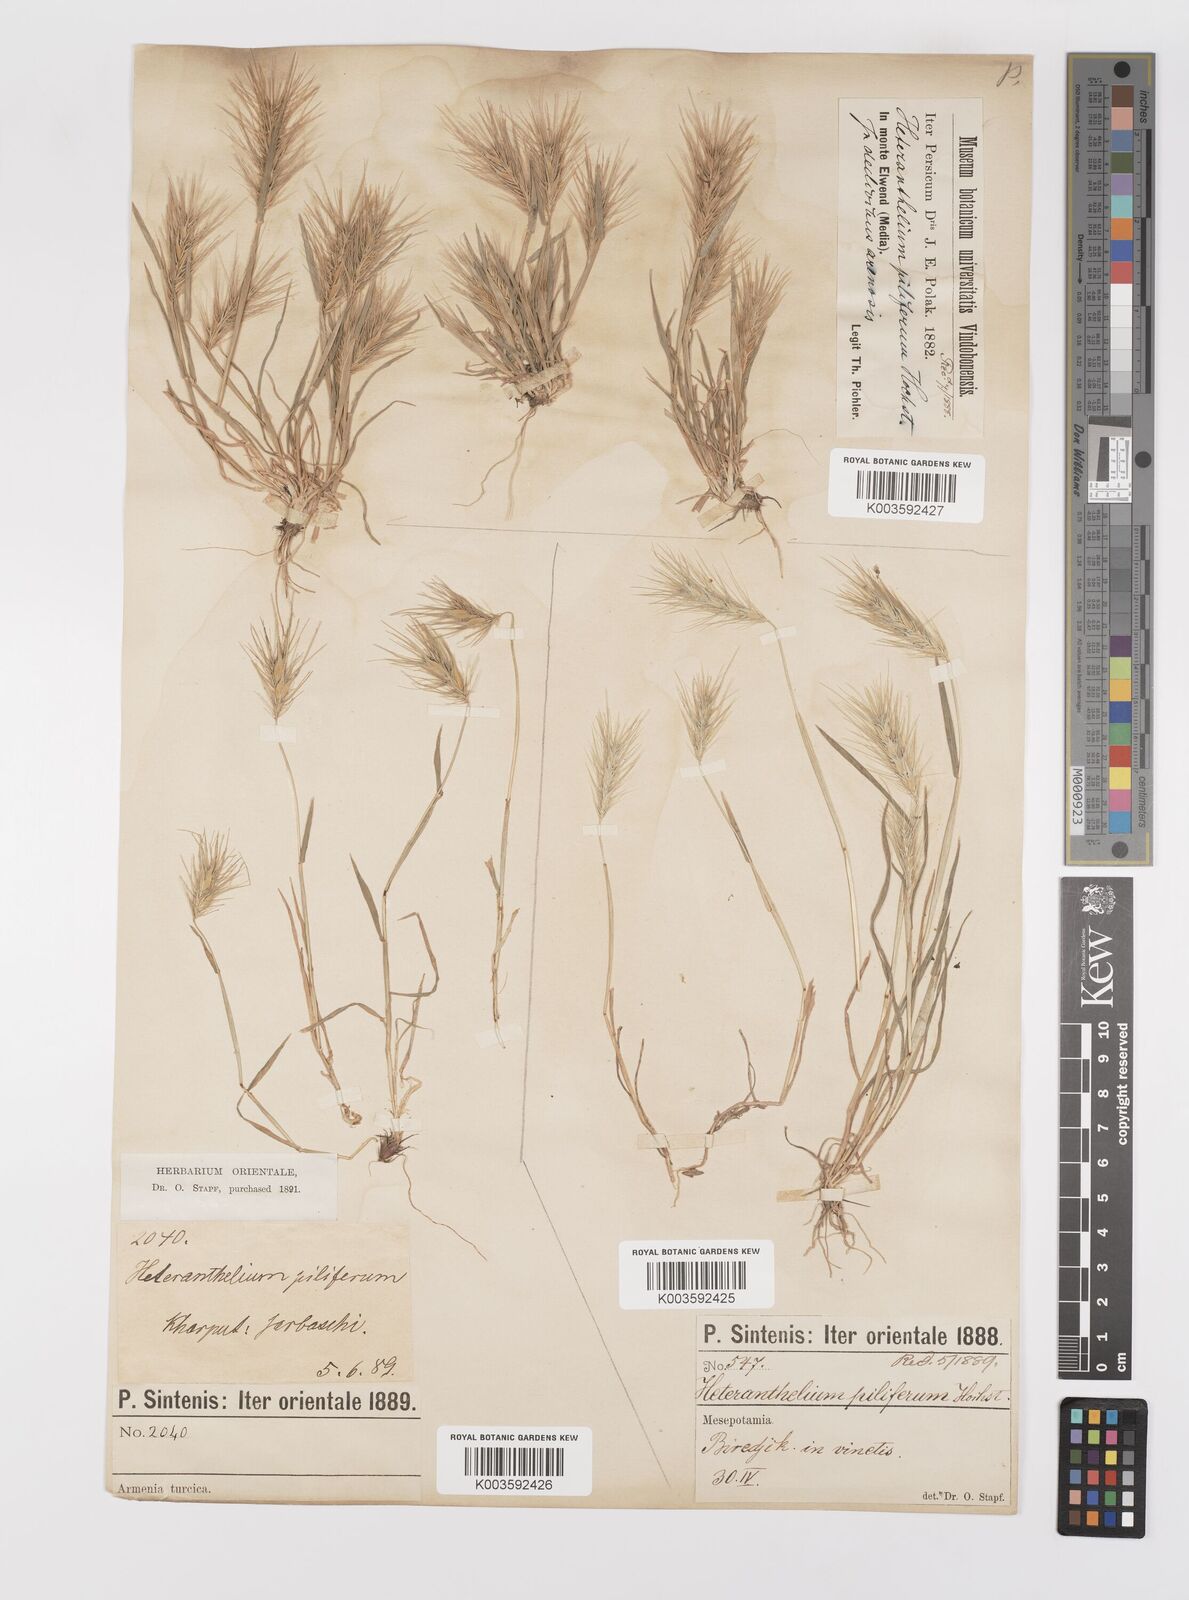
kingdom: Plantae
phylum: Tracheophyta
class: Liliopsida
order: Poales
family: Poaceae
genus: Heteranthelium
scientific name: Heteranthelium piliferum
